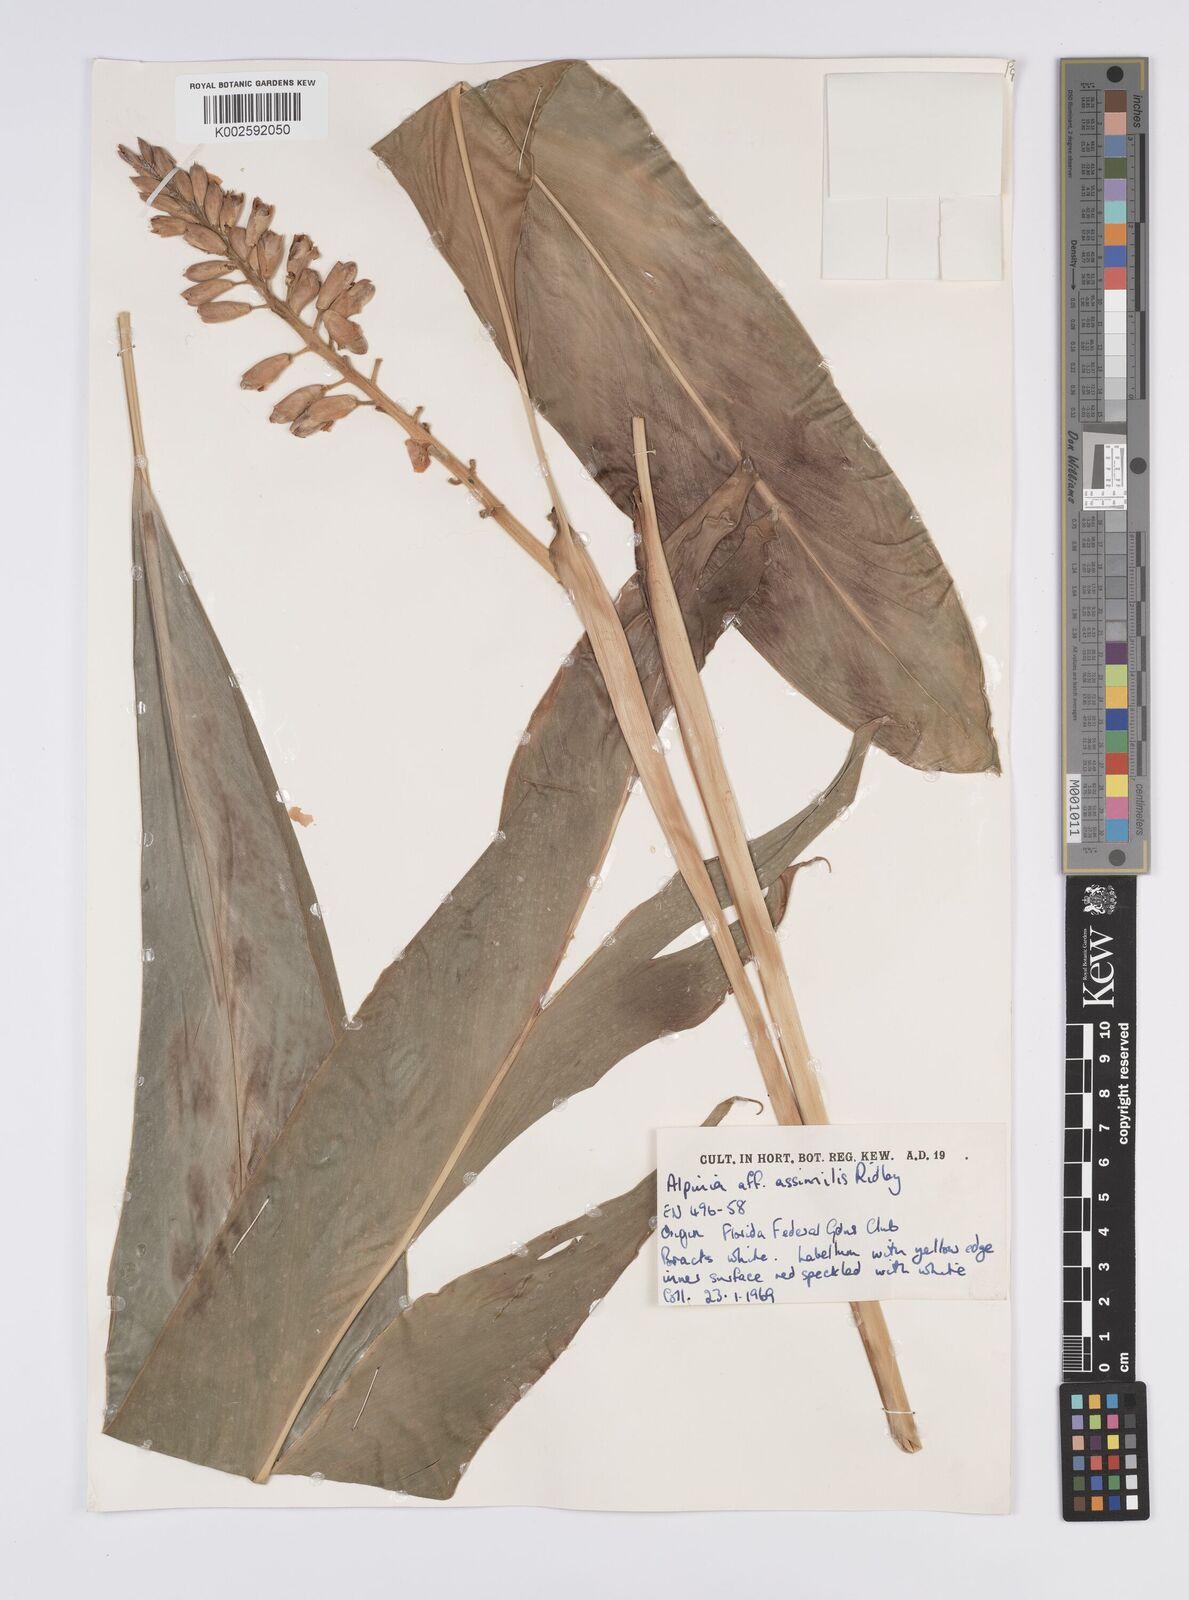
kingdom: Plantae
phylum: Tracheophyta
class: Liliopsida
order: Zingiberales
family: Zingiberaceae
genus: Alpinia
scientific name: Alpinia assimilis
